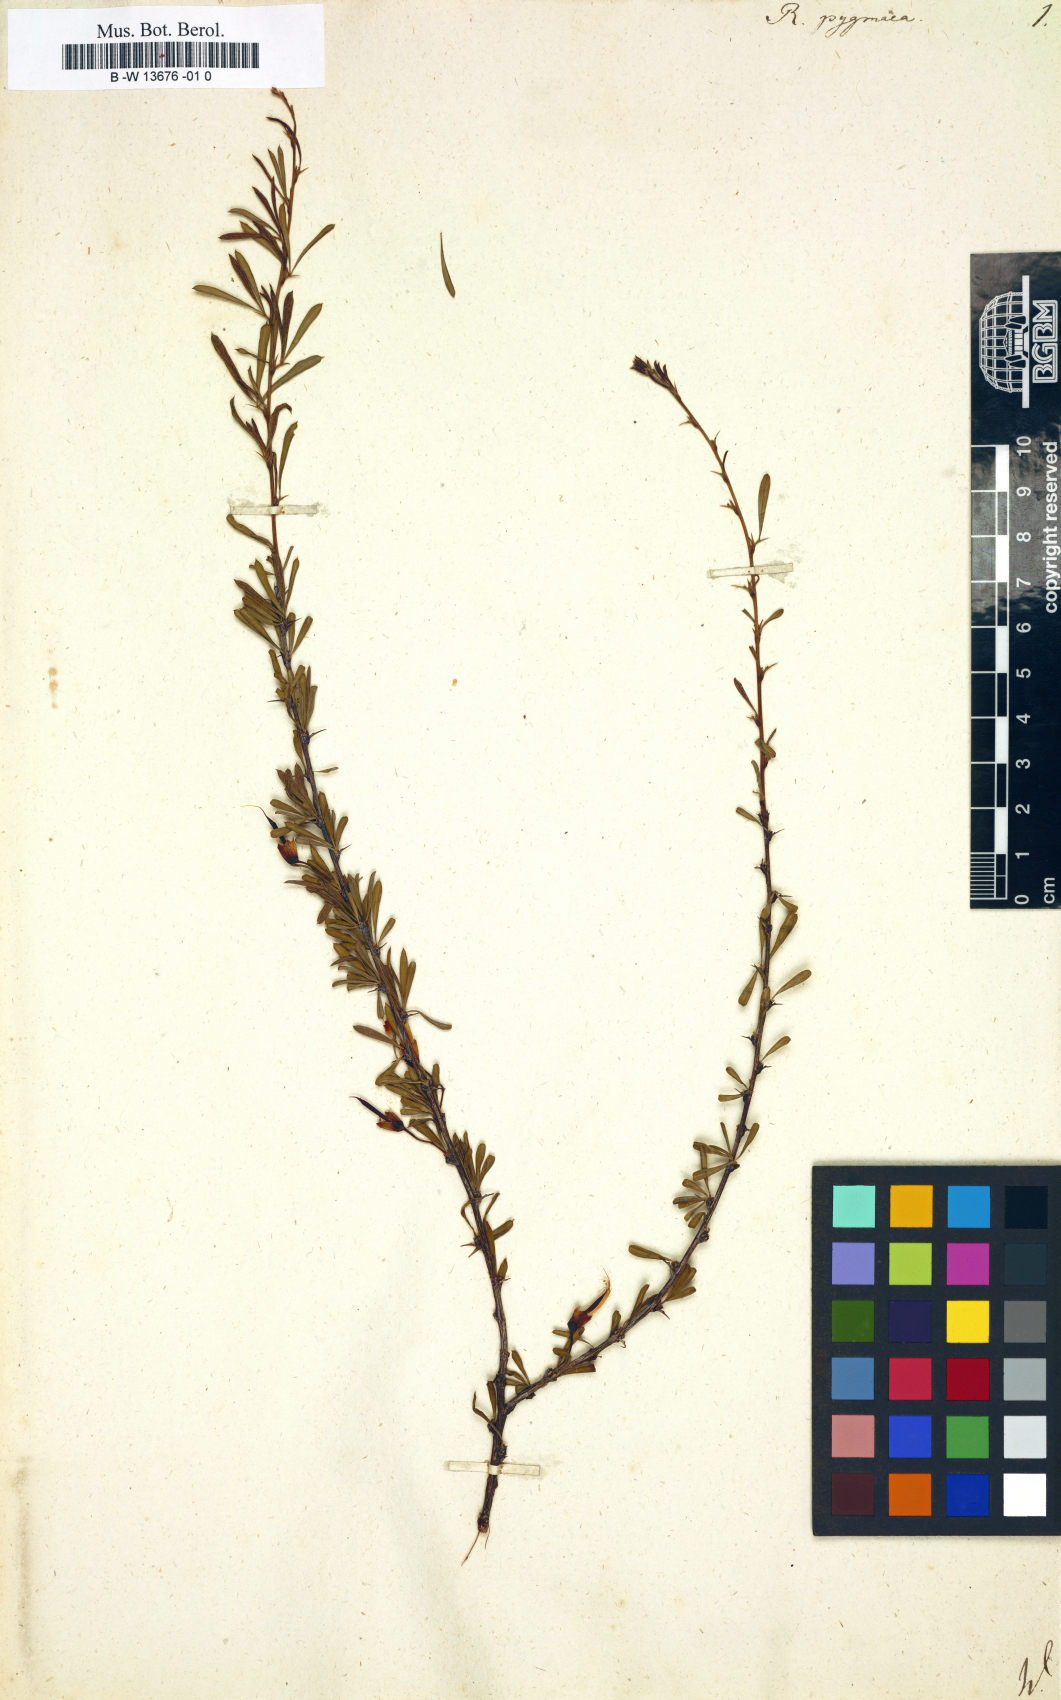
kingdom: Plantae
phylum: Tracheophyta
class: Magnoliopsida
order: Fabales
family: Fabaceae
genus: Caragana
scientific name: Caragana pygmaea
